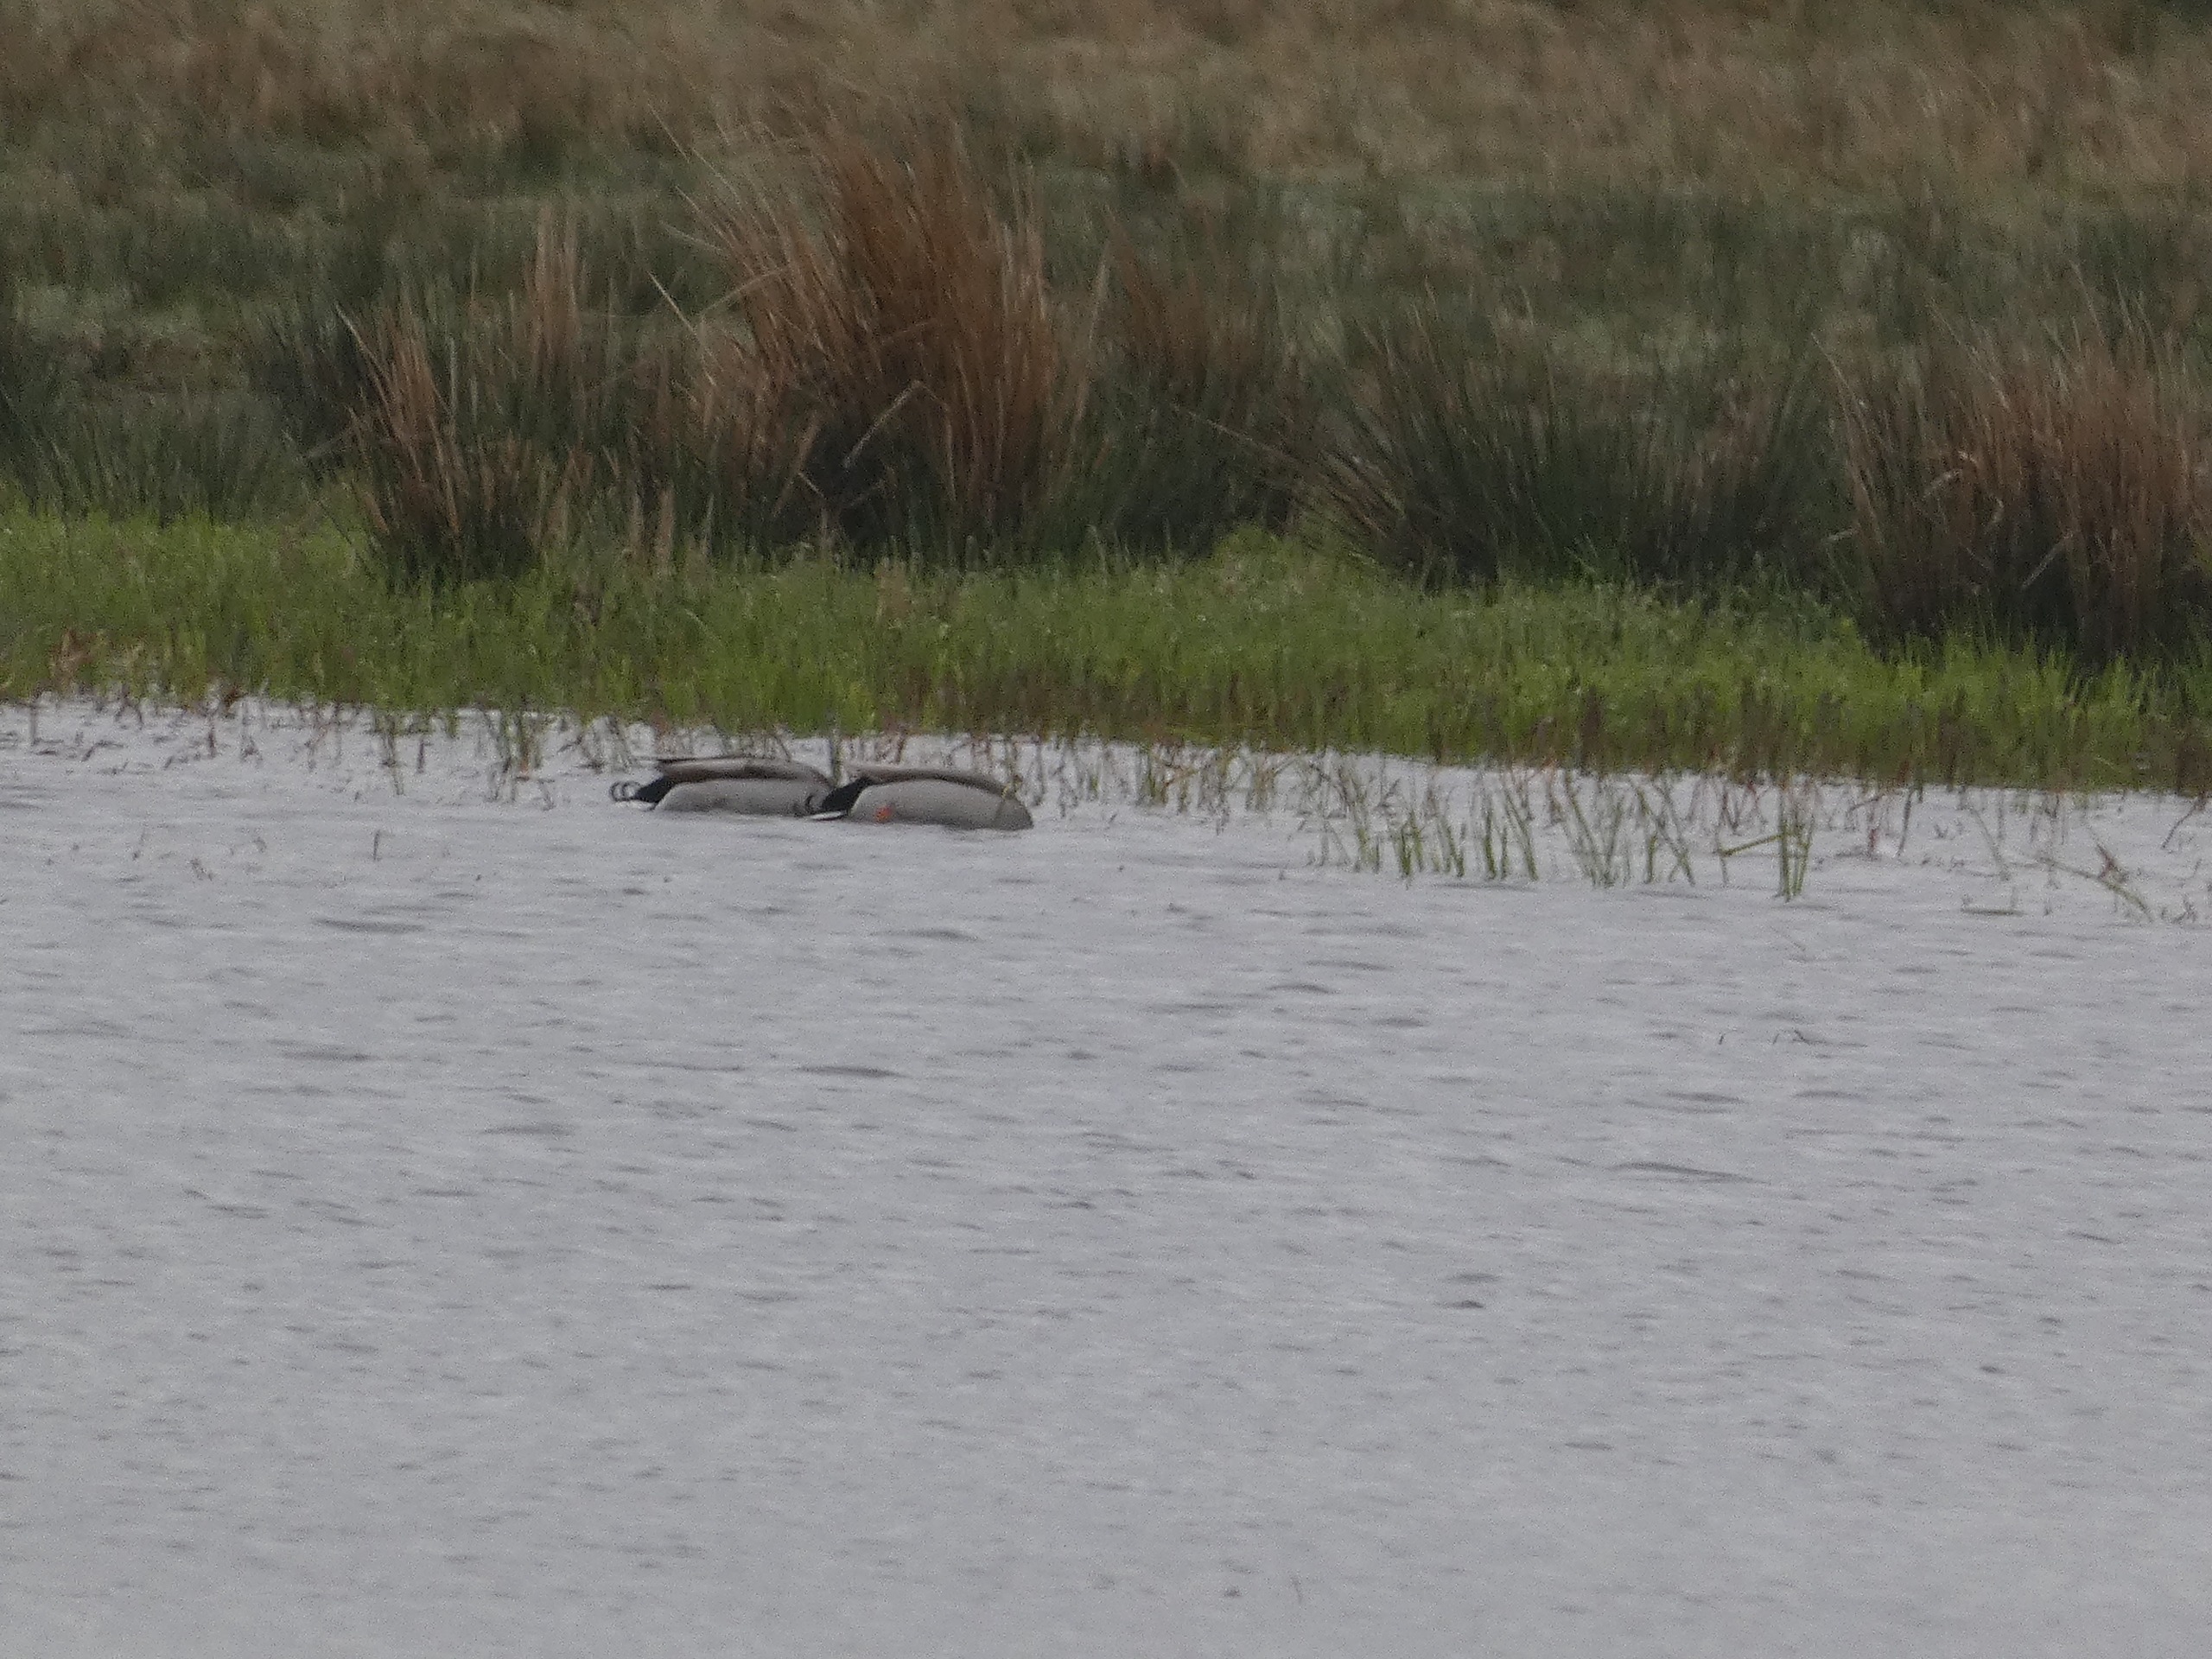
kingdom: Animalia
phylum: Chordata
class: Aves
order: Anseriformes
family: Anatidae
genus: Anas
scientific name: Anas platyrhynchos
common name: Gråand
